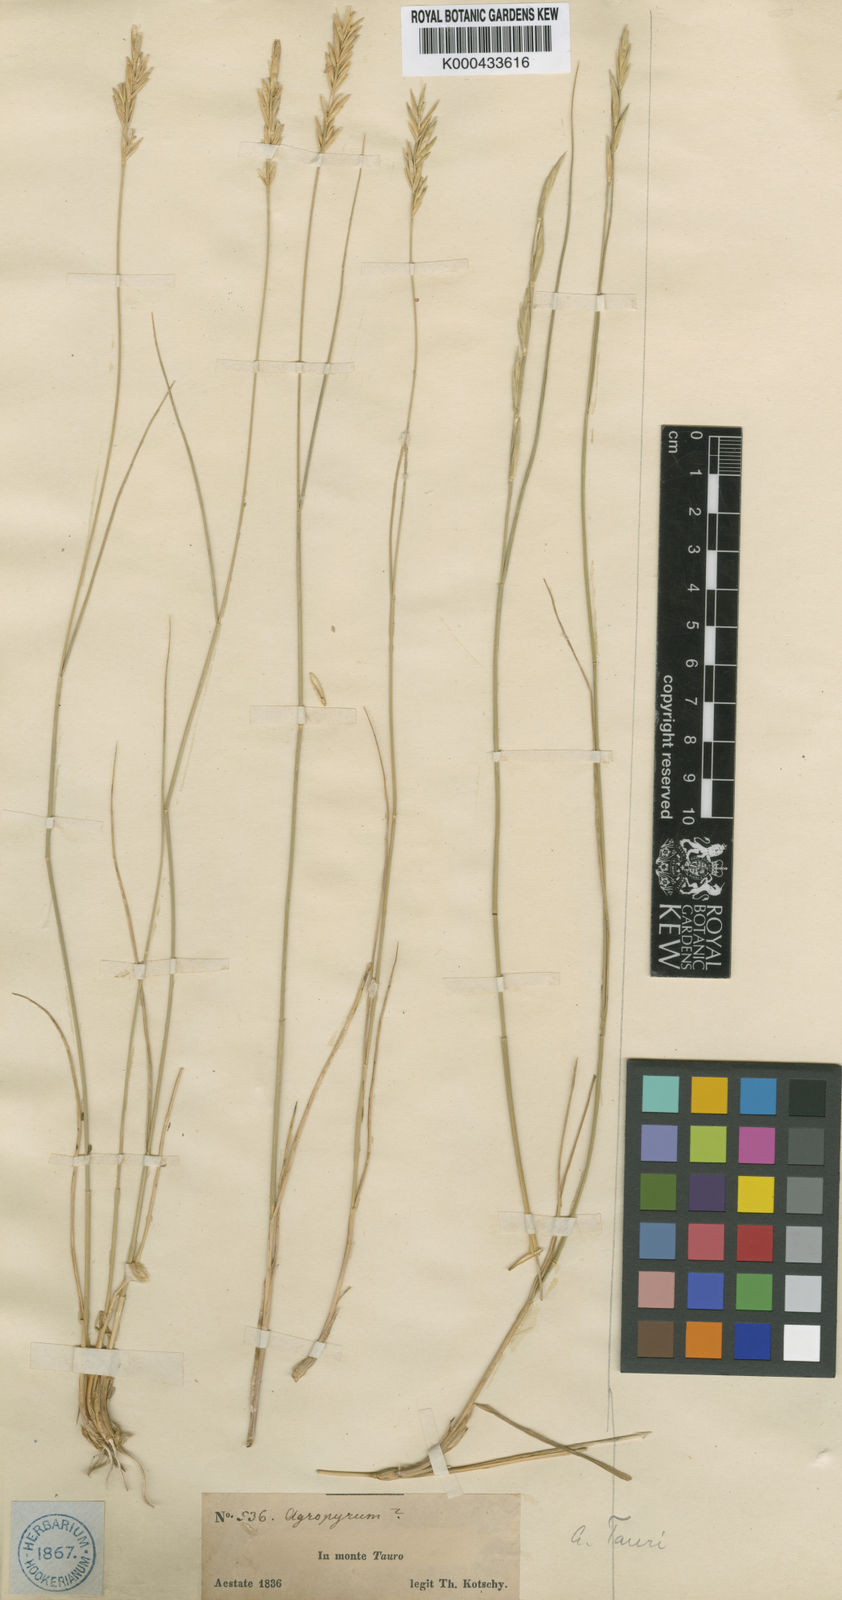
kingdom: Plantae
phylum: Tracheophyta
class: Liliopsida
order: Poales
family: Poaceae
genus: Pseudoroegneria
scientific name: Pseudoroegneria tauri
